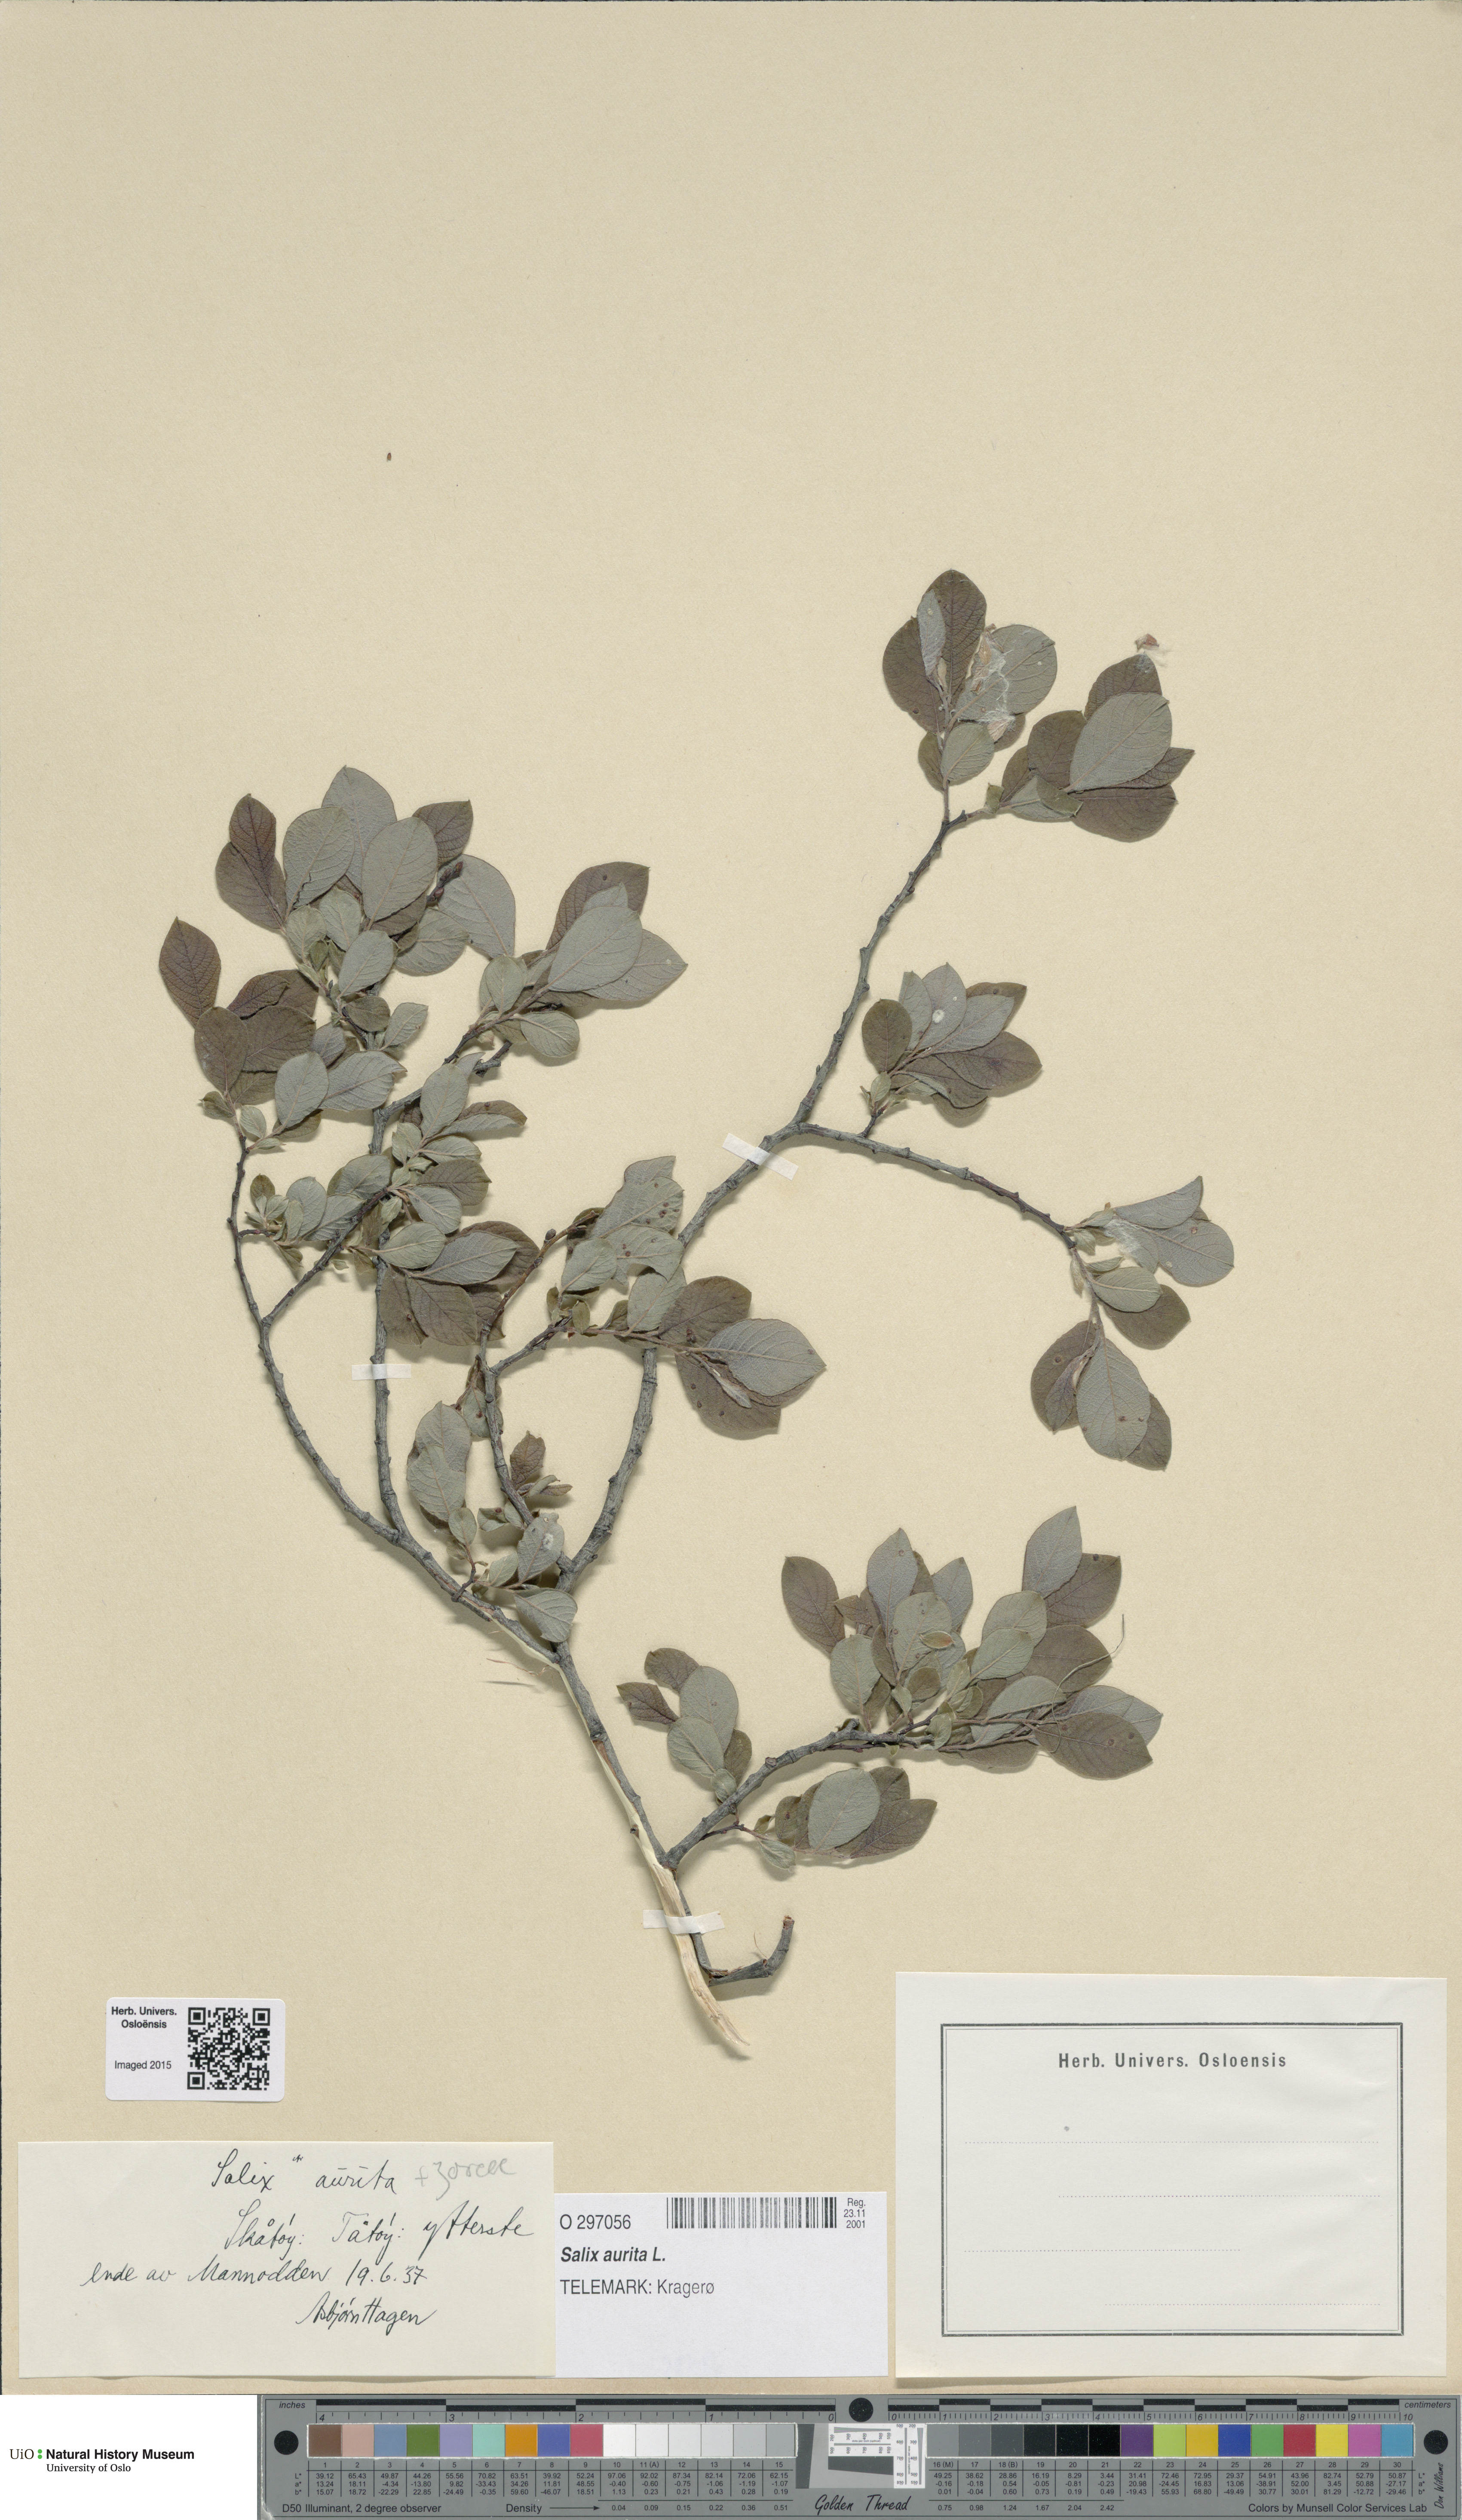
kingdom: Plantae
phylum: Tracheophyta
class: Magnoliopsida
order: Malpighiales
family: Salicaceae
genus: Salix
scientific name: Salix aurita
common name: Eared willow
